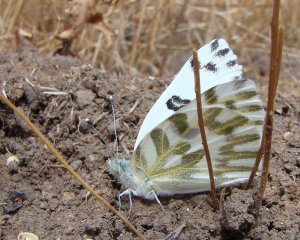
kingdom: Animalia
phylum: Arthropoda
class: Insecta
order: Lepidoptera
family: Pieridae
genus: Pontia
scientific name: Pontia beckerii
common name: Becker's White
